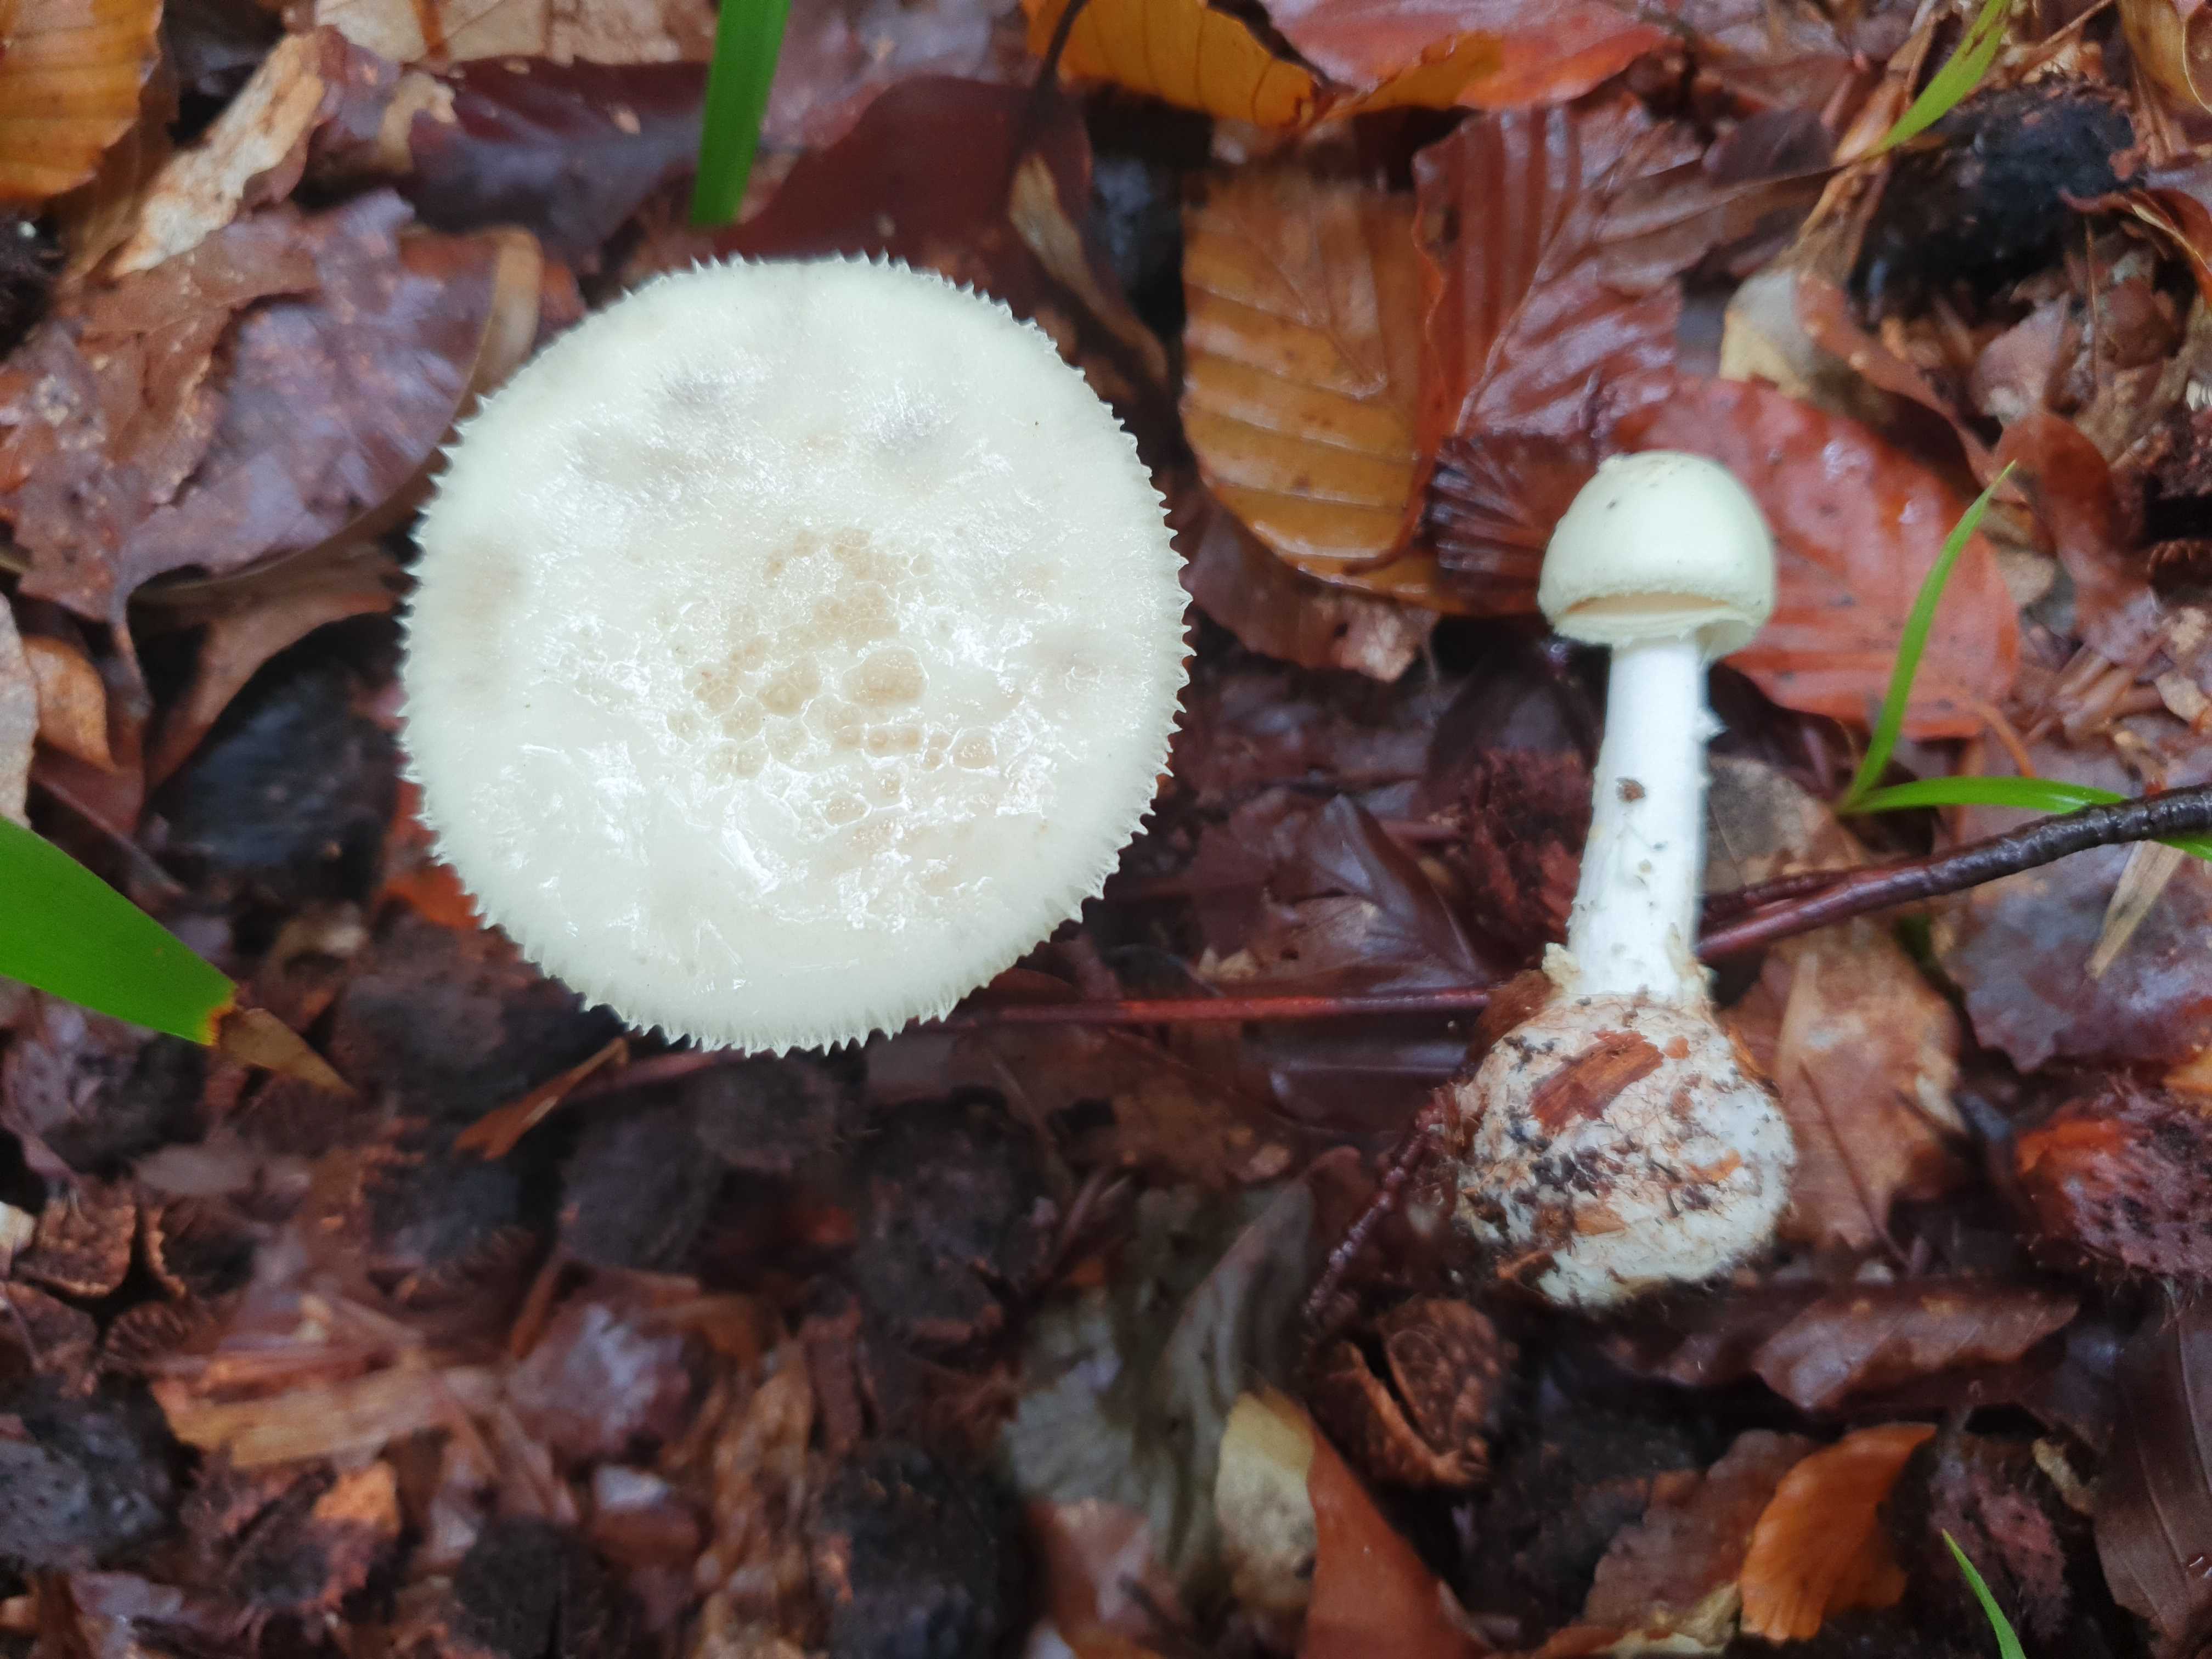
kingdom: Fungi
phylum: Basidiomycota
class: Agaricomycetes
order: Agaricales
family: Amanitaceae
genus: Amanita
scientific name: Amanita citrina
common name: kugleknoldet fluesvamp
